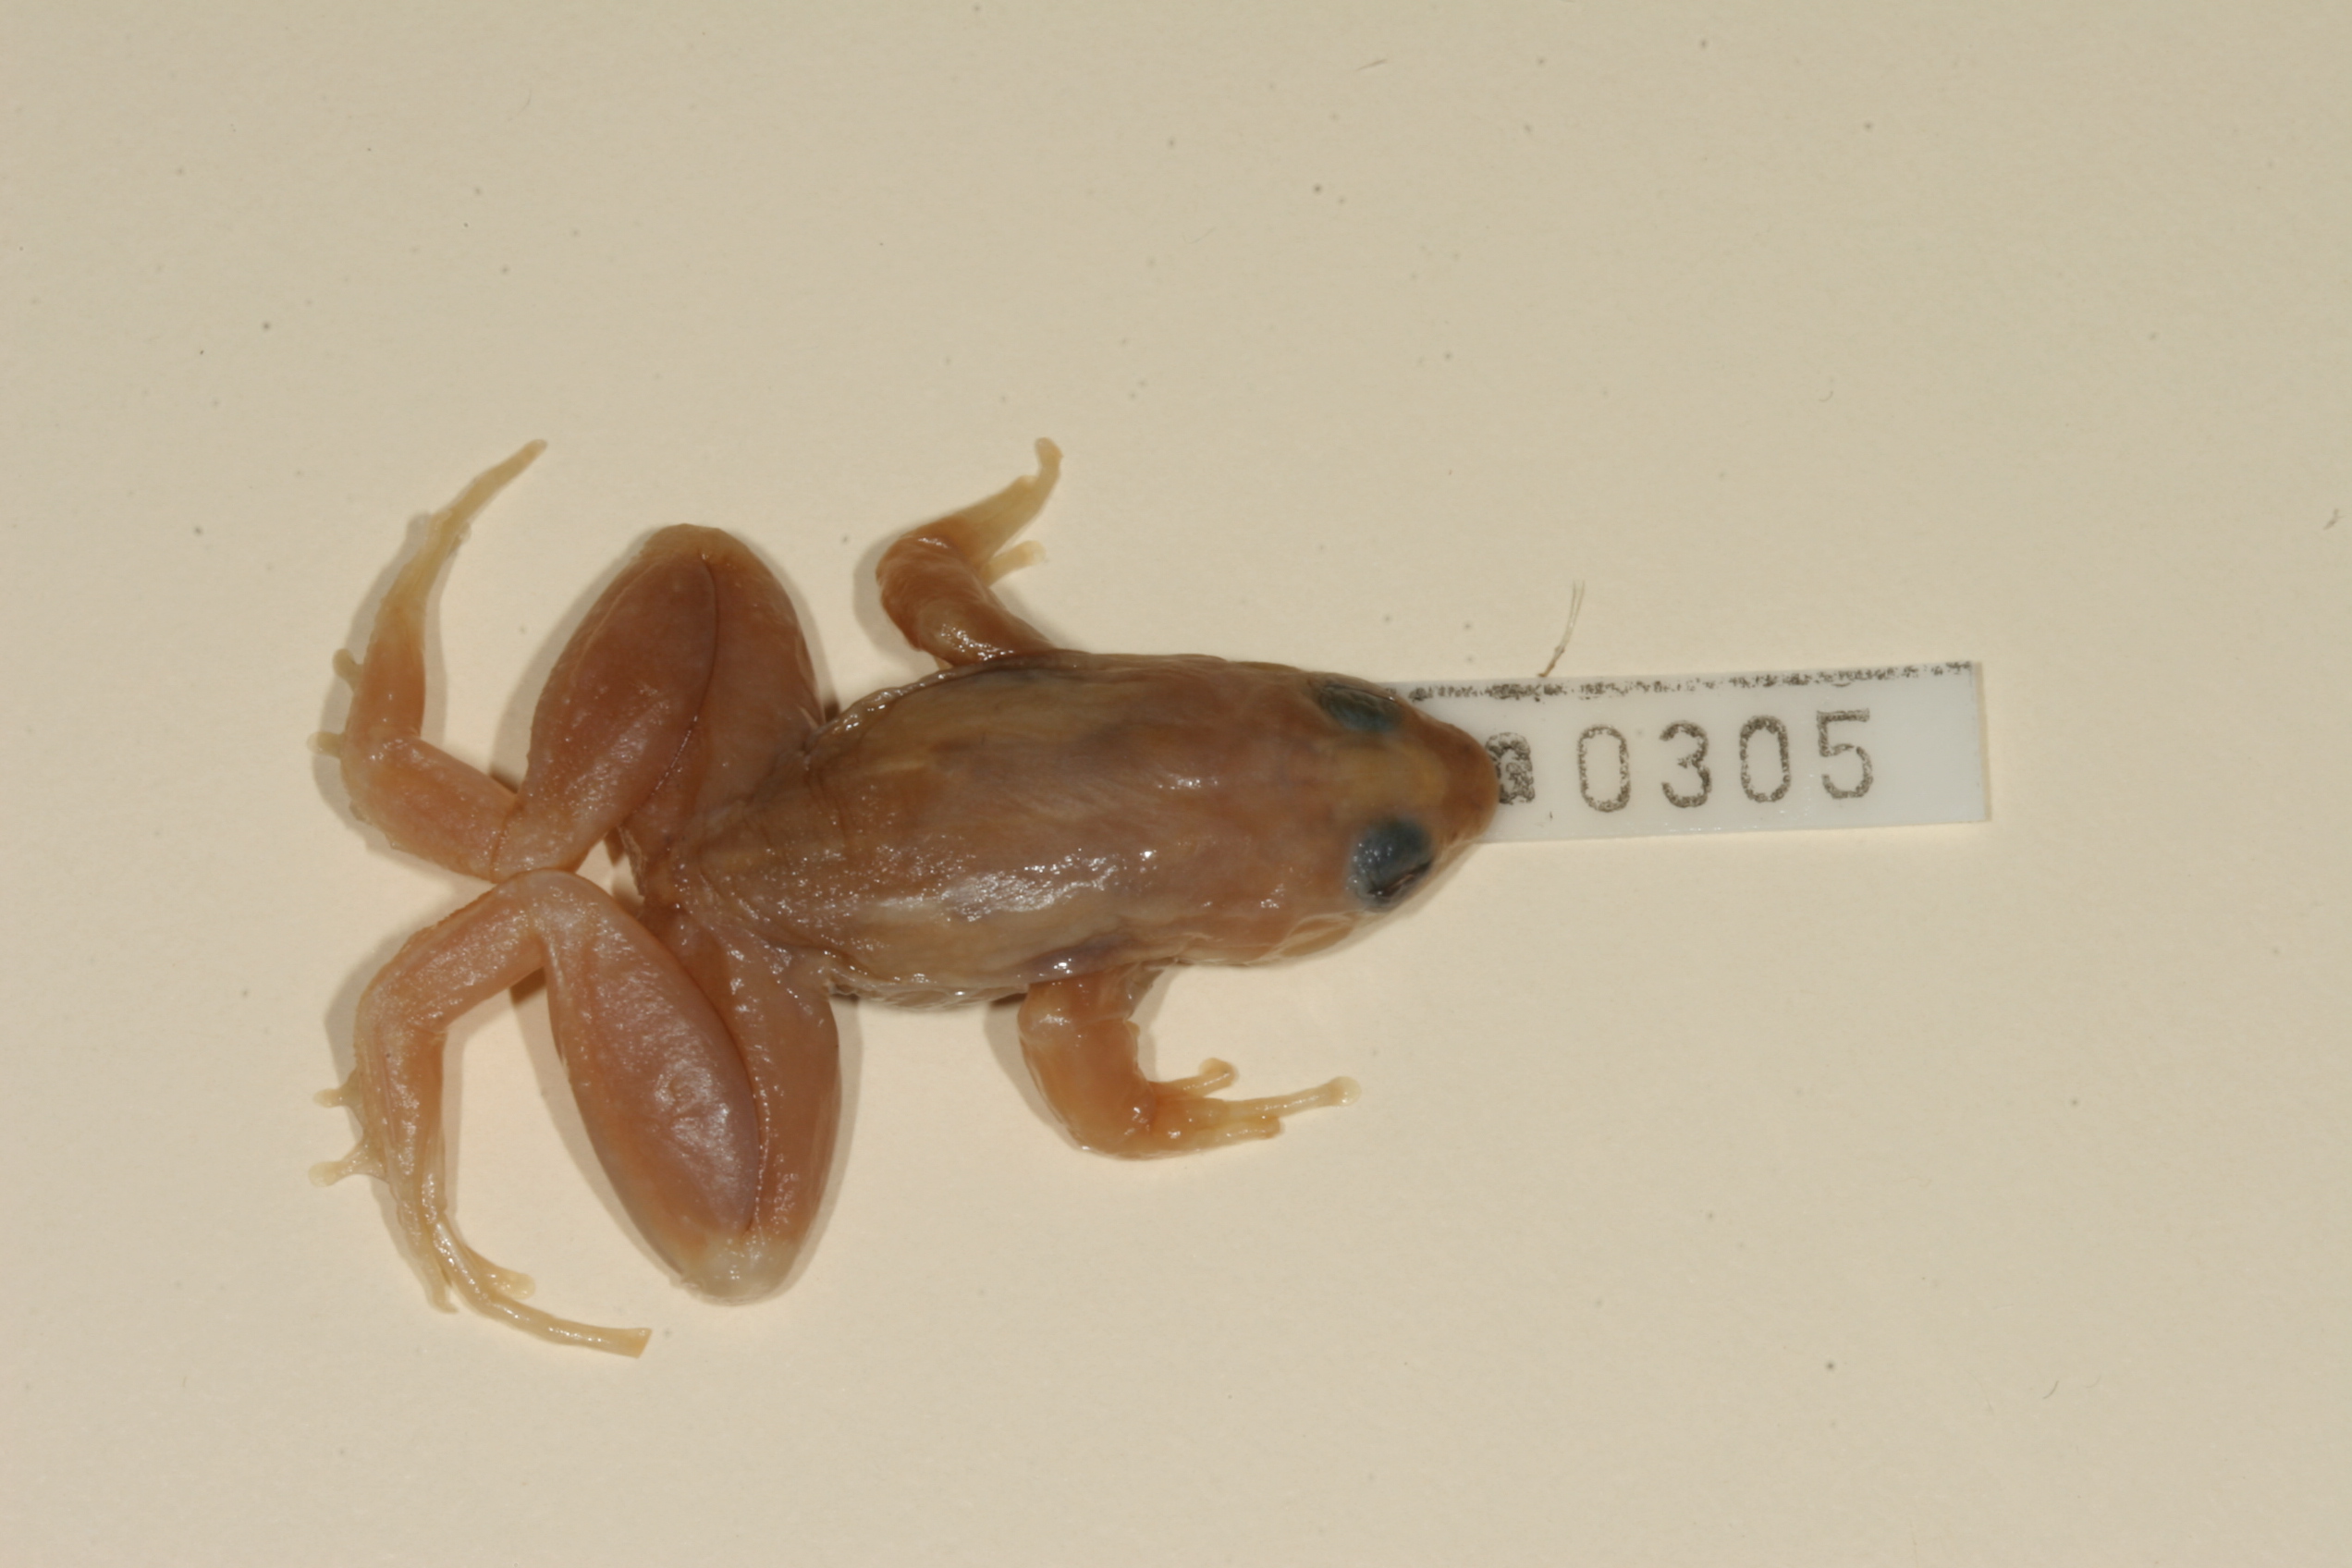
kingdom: Animalia
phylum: Chordata
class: Amphibia
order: Anura
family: Phrynobatrachidae
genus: Phrynobatrachus
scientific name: Phrynobatrachus versicolor
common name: Rwanda river frog
